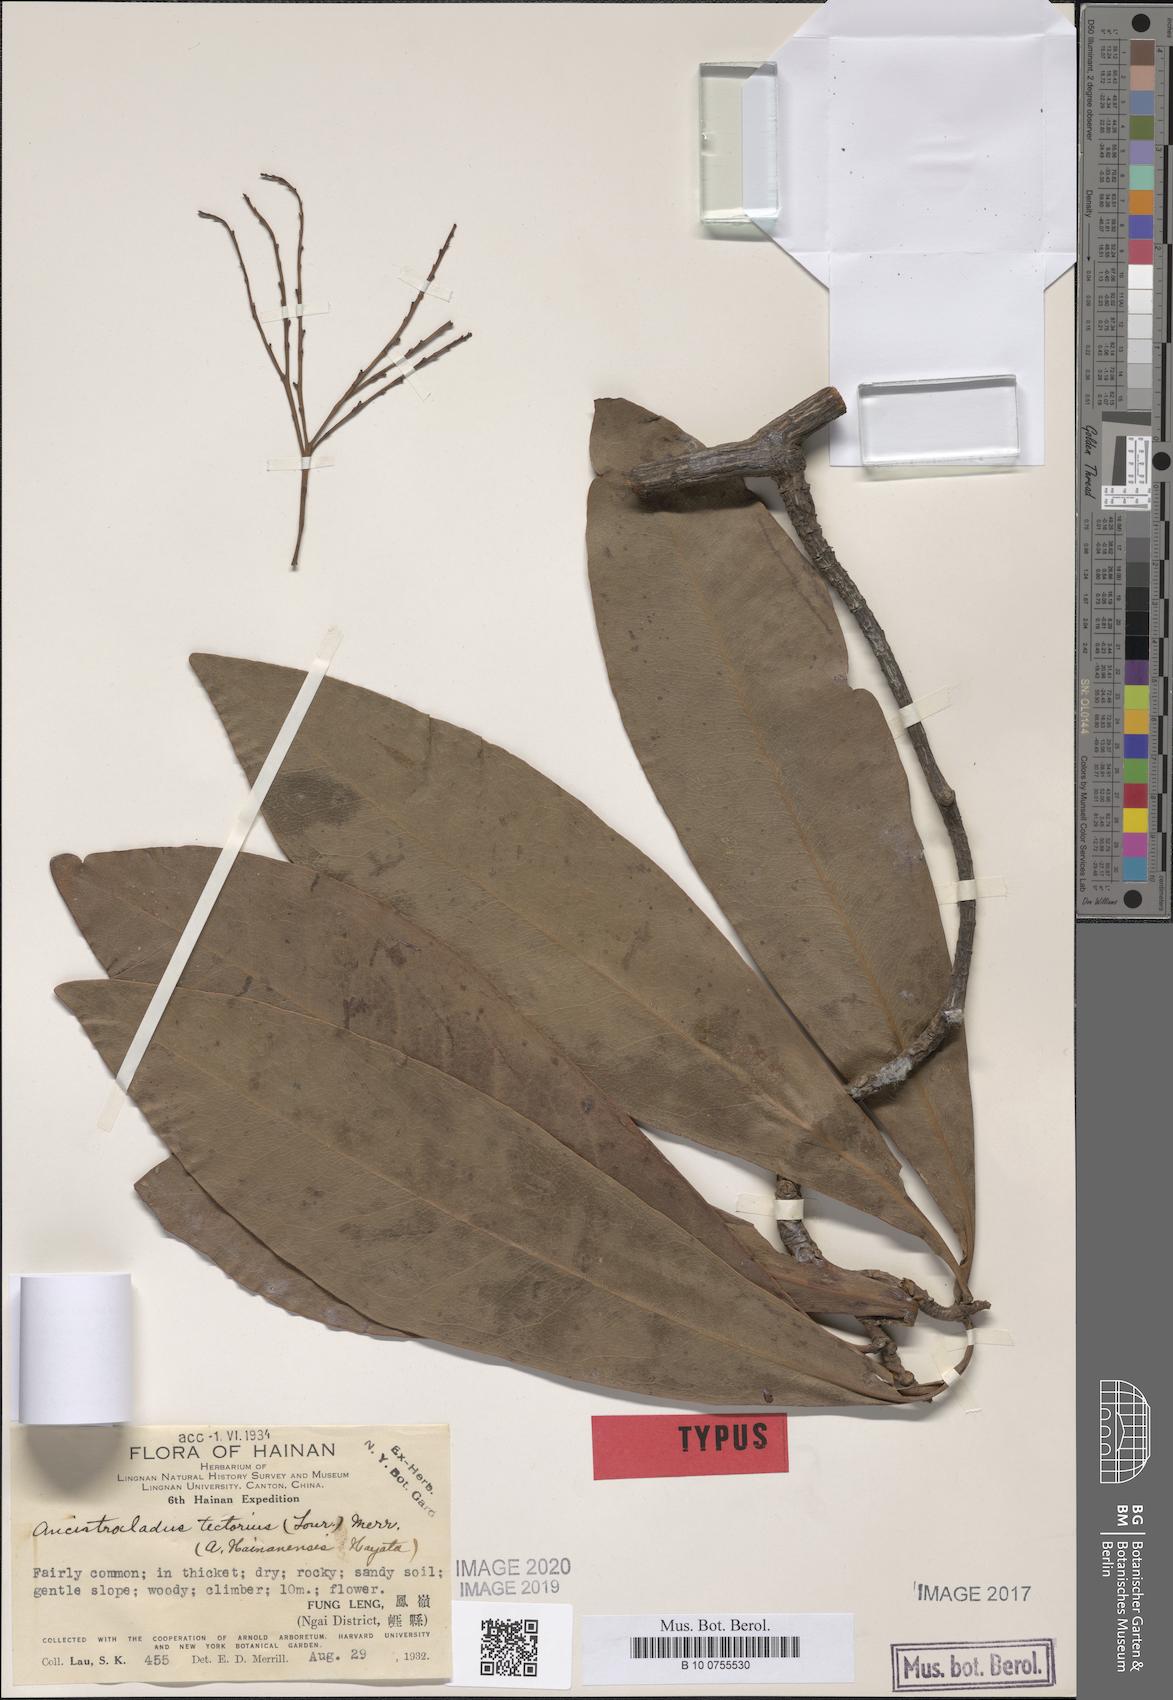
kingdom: Plantae
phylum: Tracheophyta
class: Magnoliopsida
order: Caryophyllales
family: Ancistrocladaceae
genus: Ancistrocladus
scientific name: Ancistrocladus tectorius
